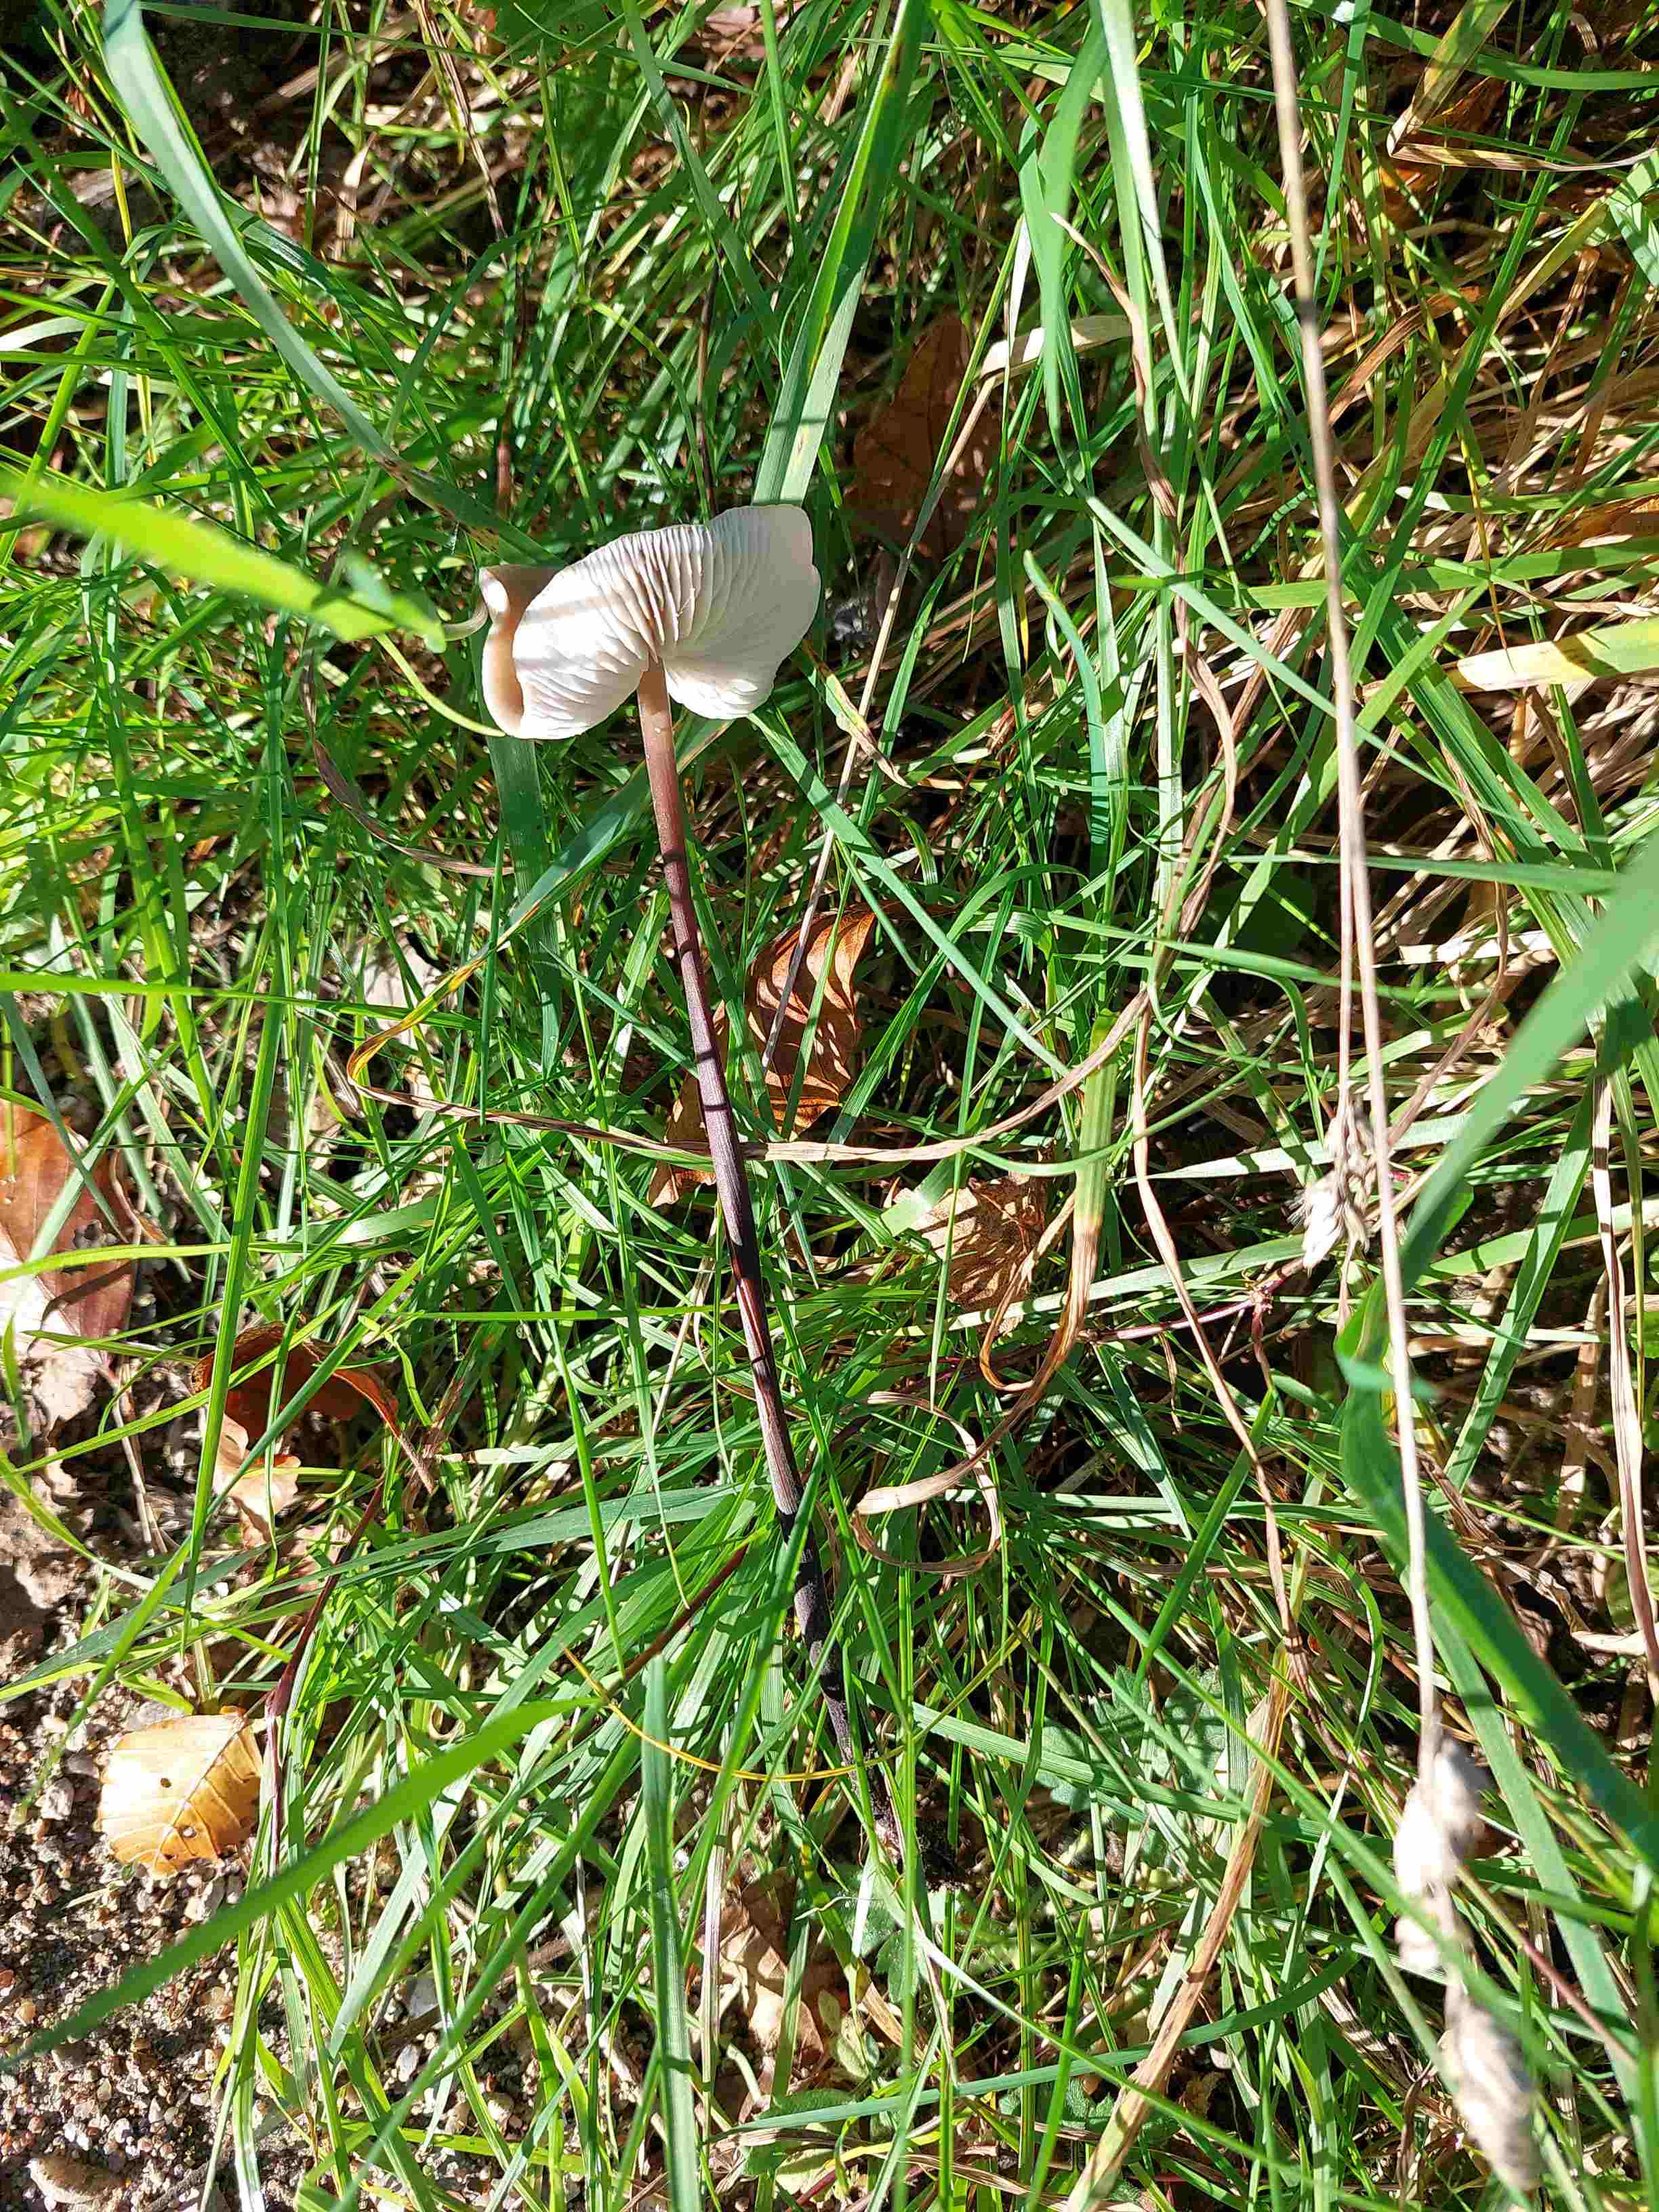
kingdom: Fungi
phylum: Basidiomycota
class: Agaricomycetes
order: Agaricales
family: Omphalotaceae
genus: Mycetinis
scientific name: Mycetinis alliaceus
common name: stor løghat
